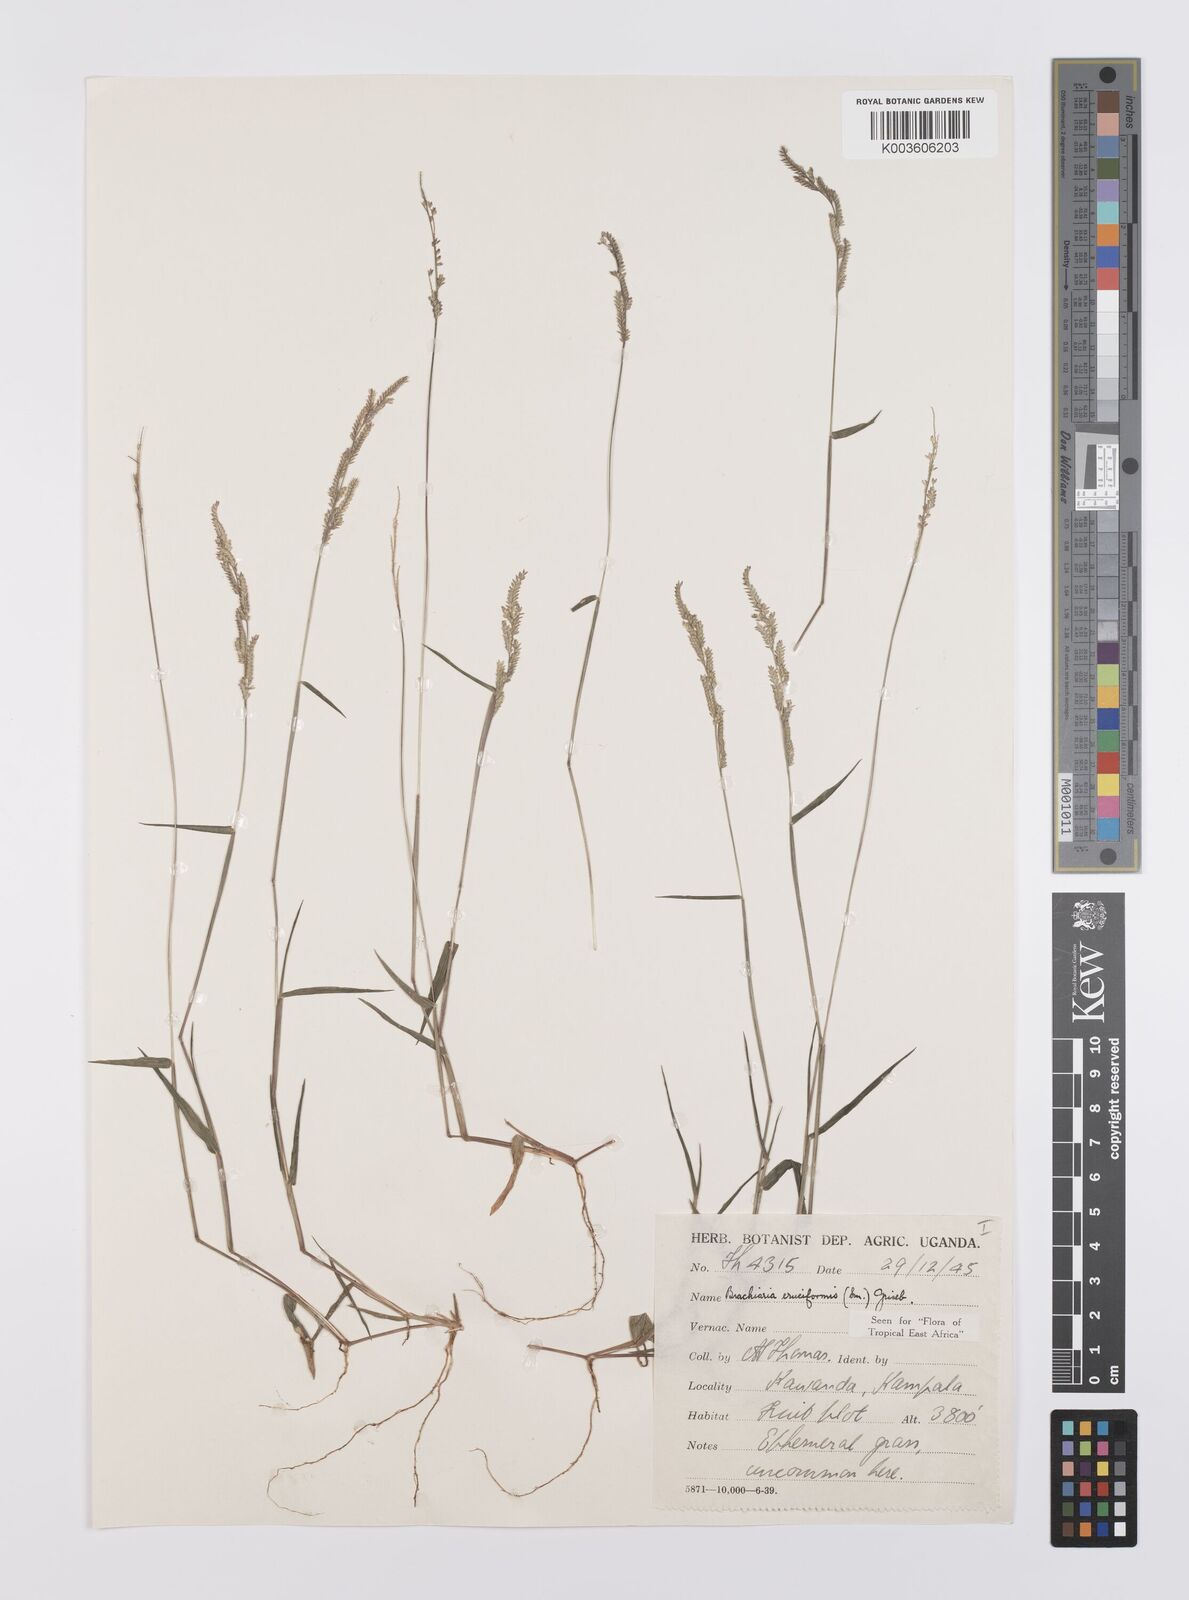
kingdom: Plantae
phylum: Tracheophyta
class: Liliopsida
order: Poales
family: Poaceae
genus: Moorochloa
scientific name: Moorochloa eruciformis
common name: Sweet signalgrass
